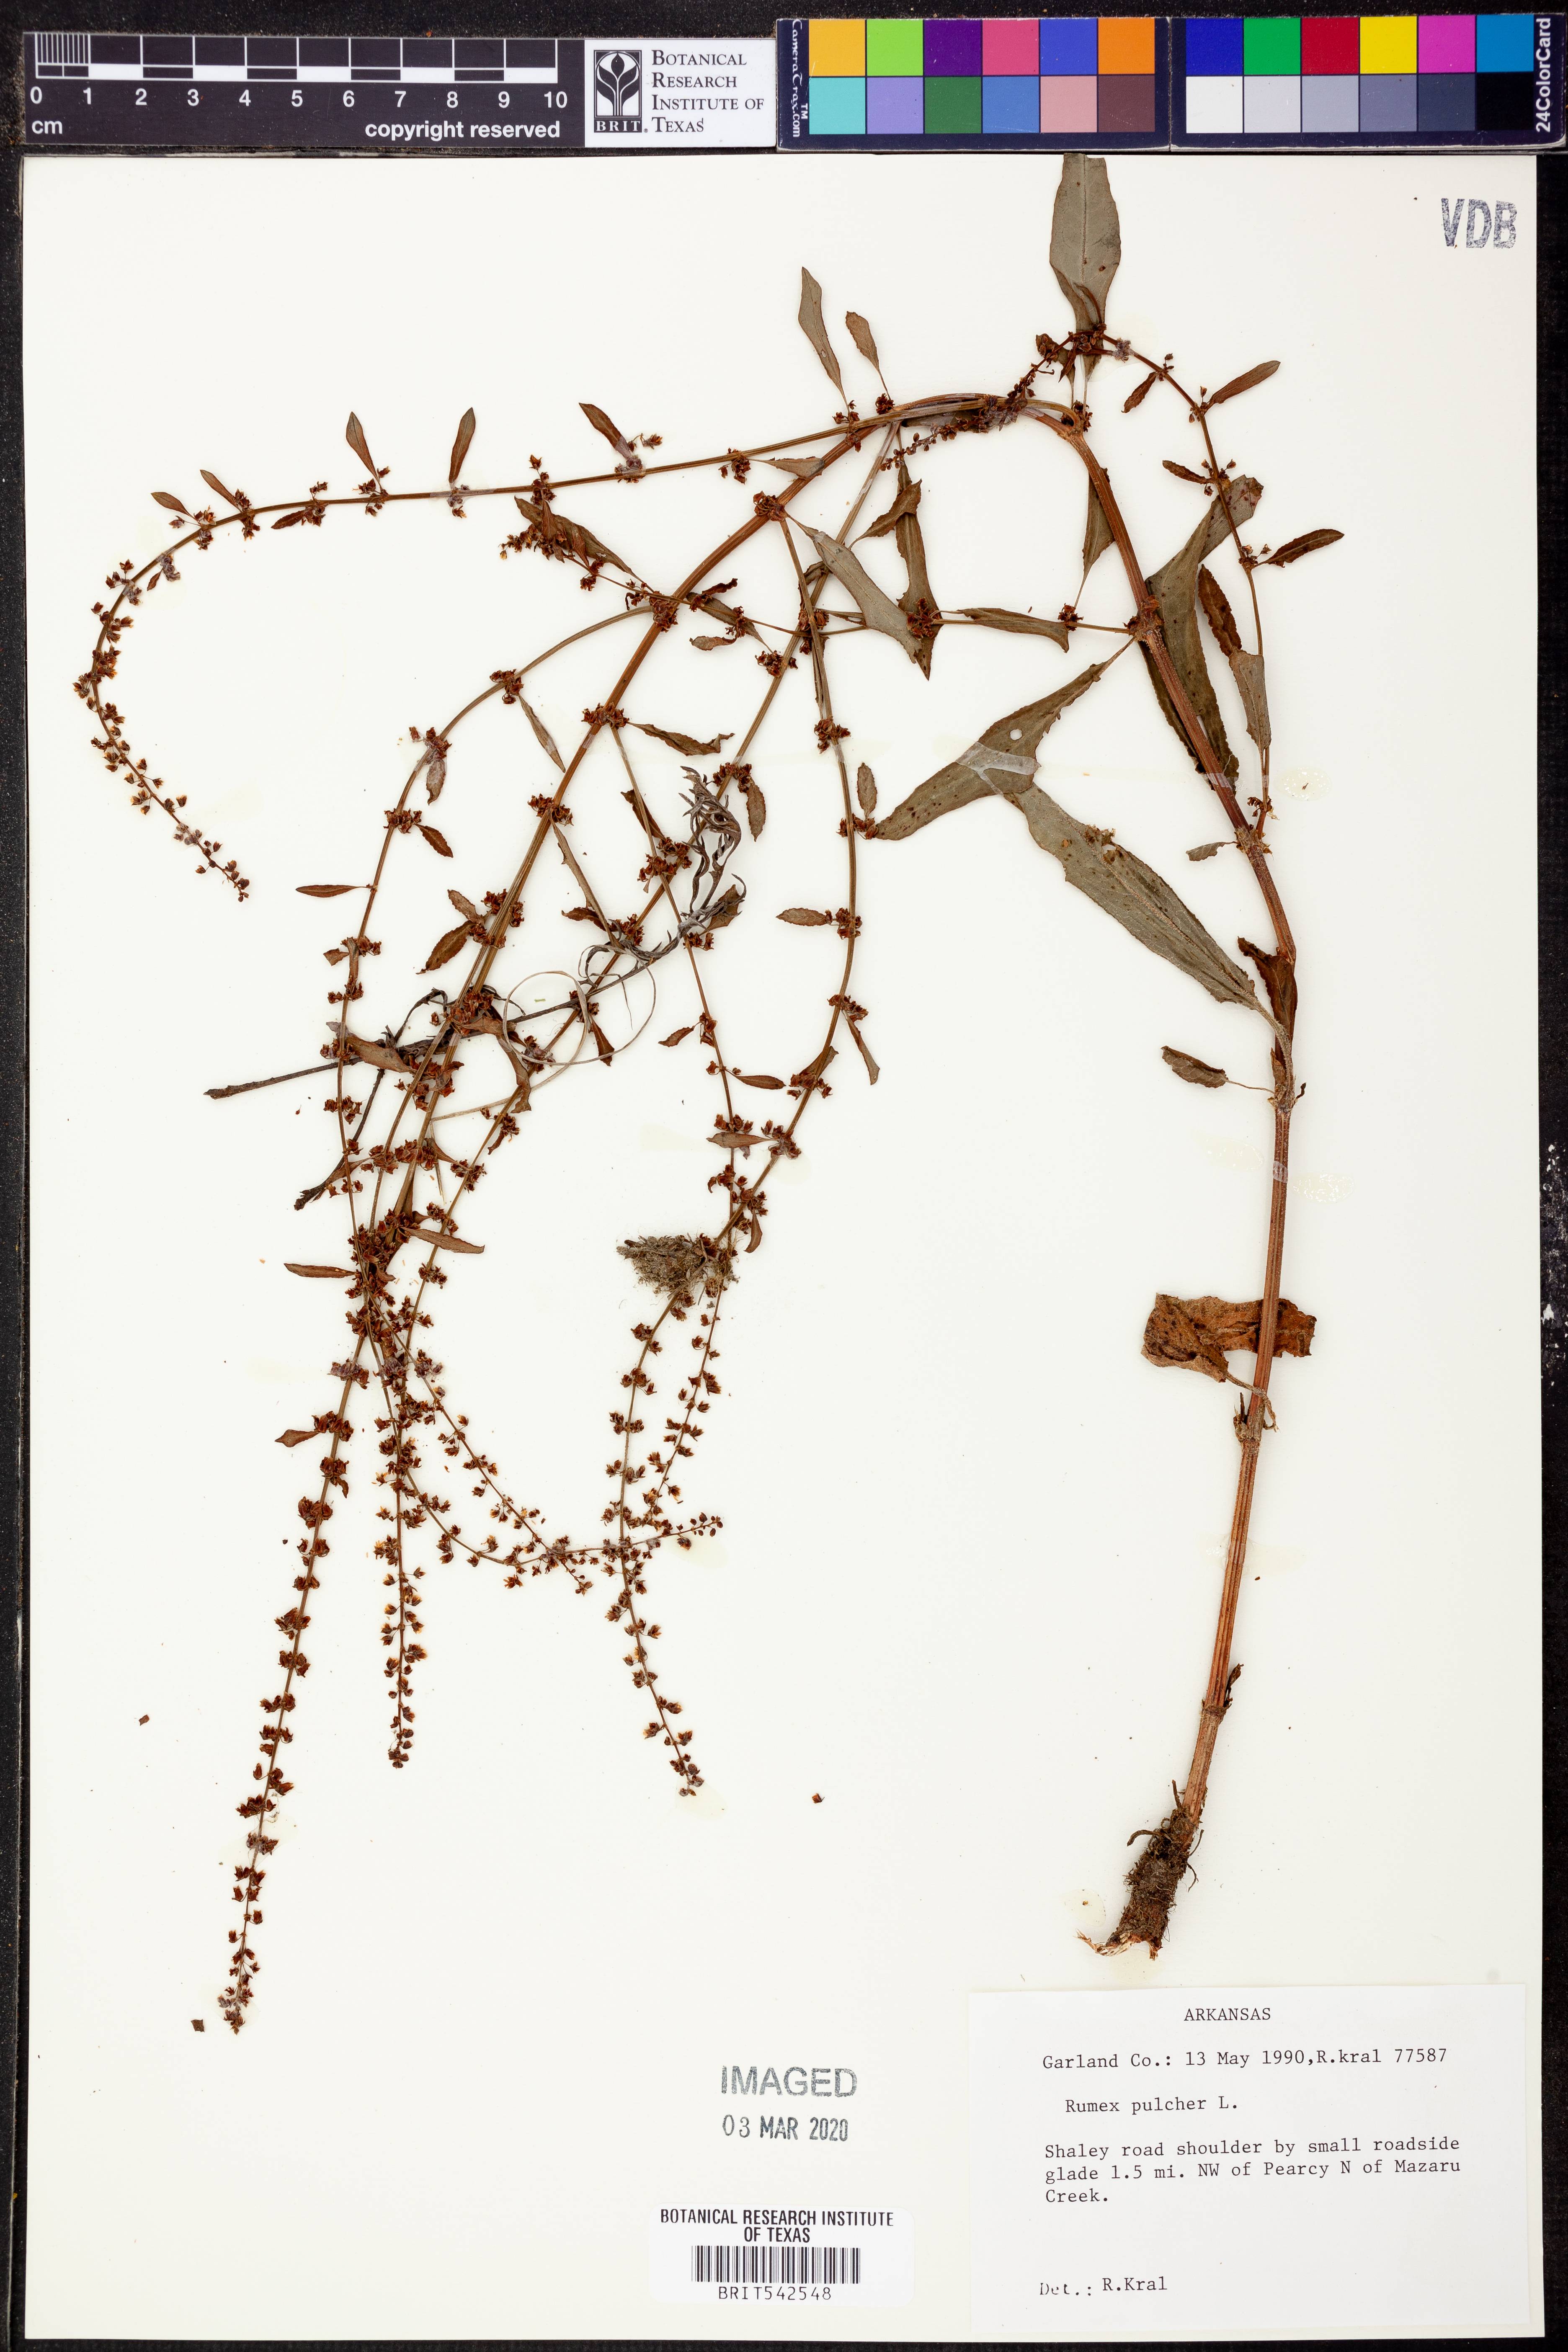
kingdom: Plantae
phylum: Tracheophyta
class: Magnoliopsida
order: Caryophyllales
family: Polygonaceae
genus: Rumex
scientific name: Rumex pulcher
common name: Fiddle dock
